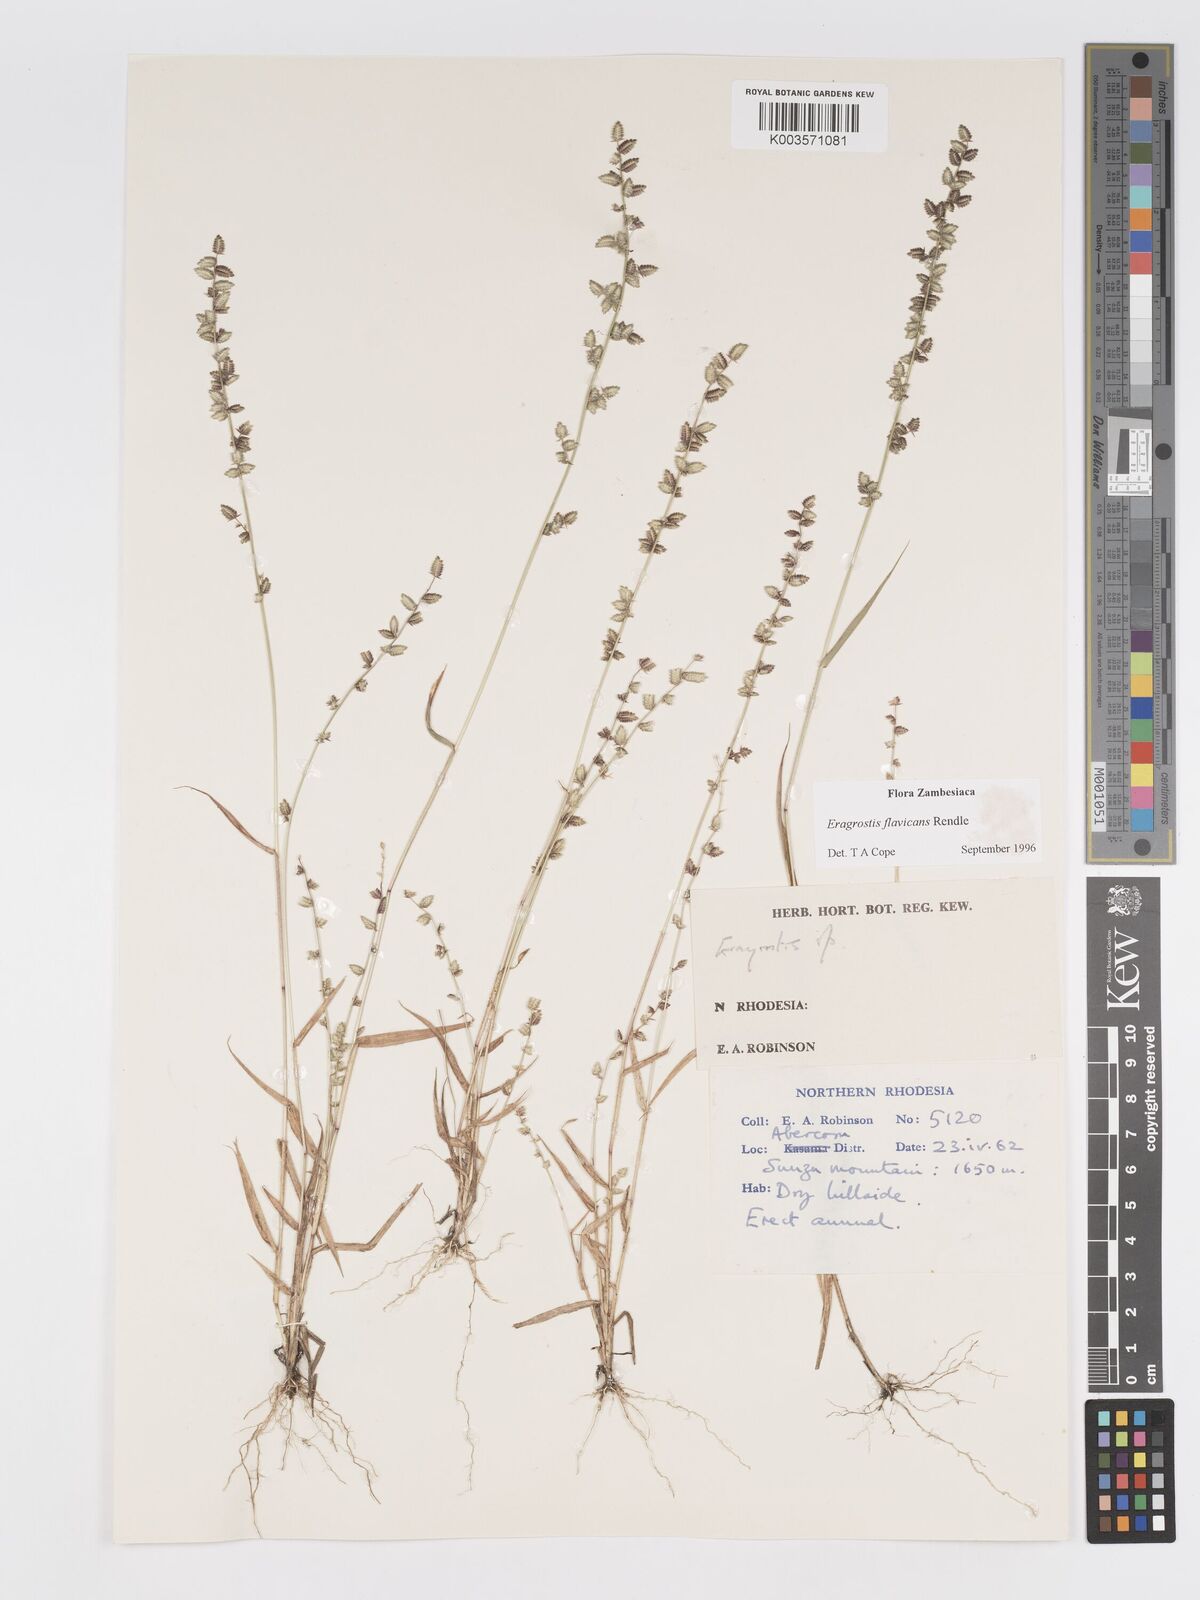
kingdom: Plantae
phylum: Tracheophyta
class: Liliopsida
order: Poales
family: Poaceae
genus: Eragrostis
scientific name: Eragrostis flavicans
